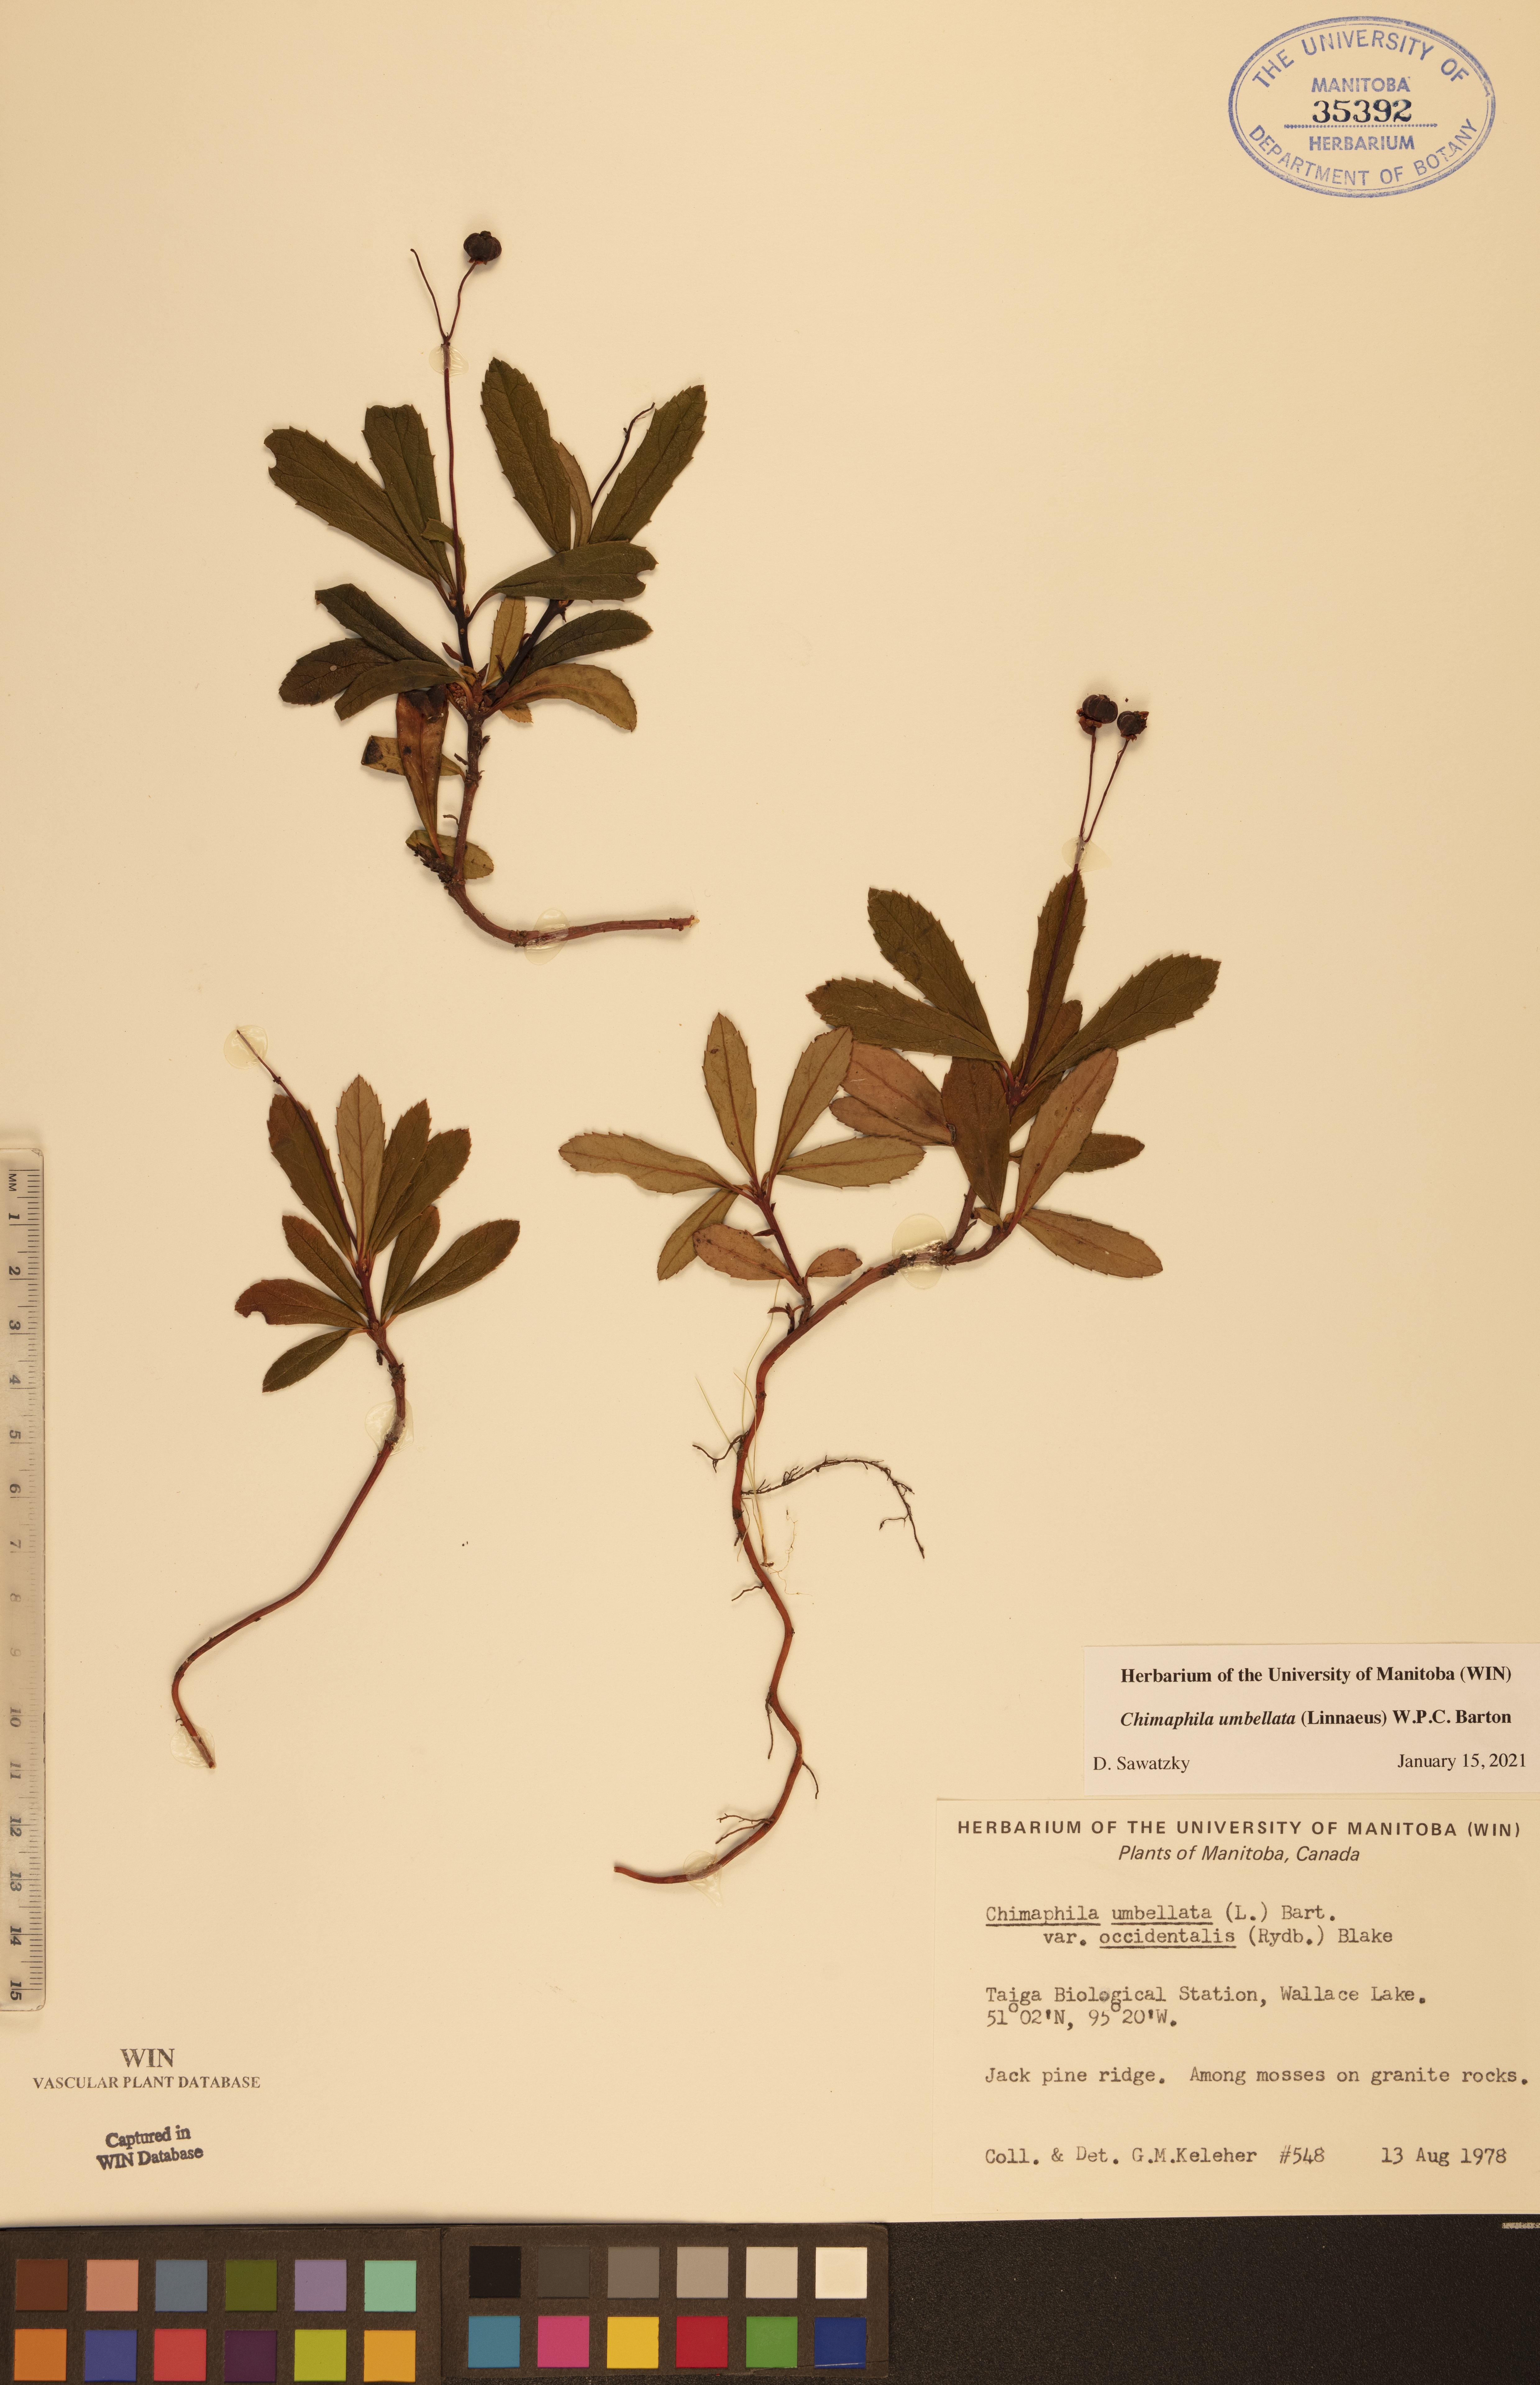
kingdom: Plantae
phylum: Tracheophyta
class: Magnoliopsida
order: Ericales
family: Ericaceae
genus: Chimaphila
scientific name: Chimaphila umbellata
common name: Pipsissewa
